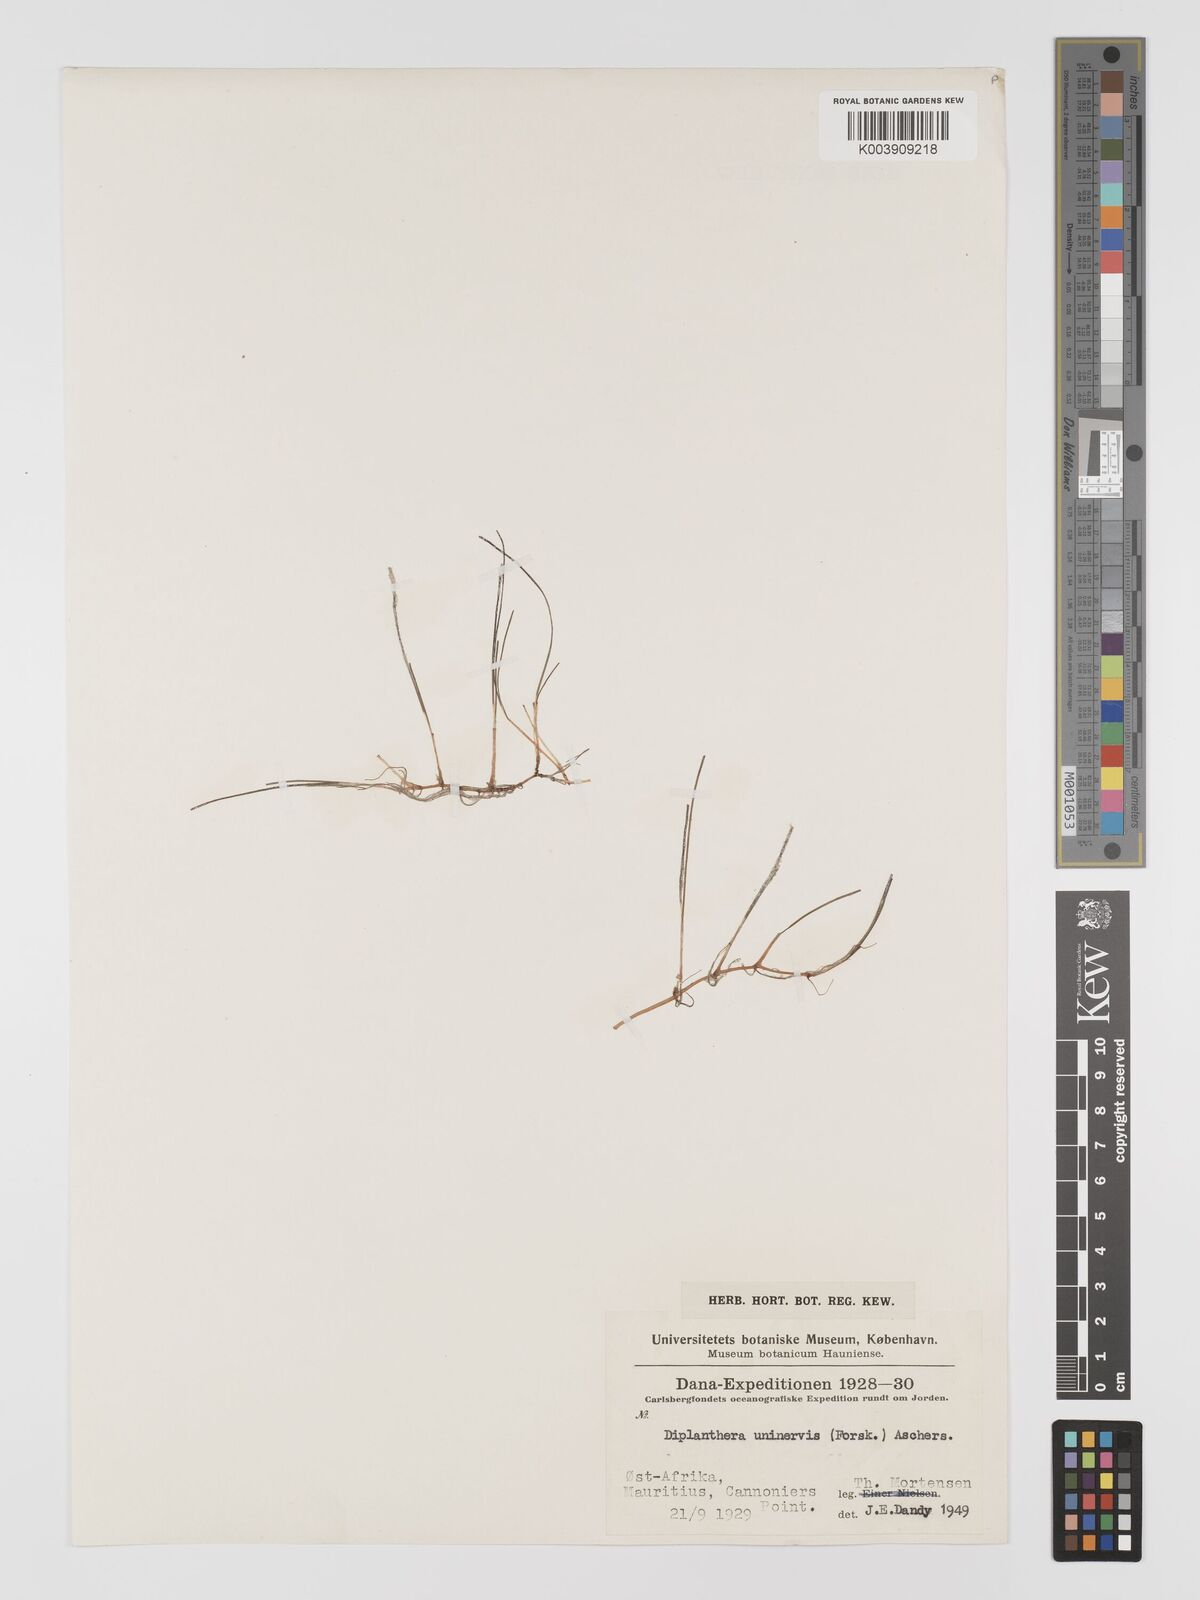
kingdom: Plantae
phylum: Tracheophyta
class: Liliopsida
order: Alismatales
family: Cymodoceaceae
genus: Halodule
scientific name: Halodule uninervis
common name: Narrowleaf seagrass
